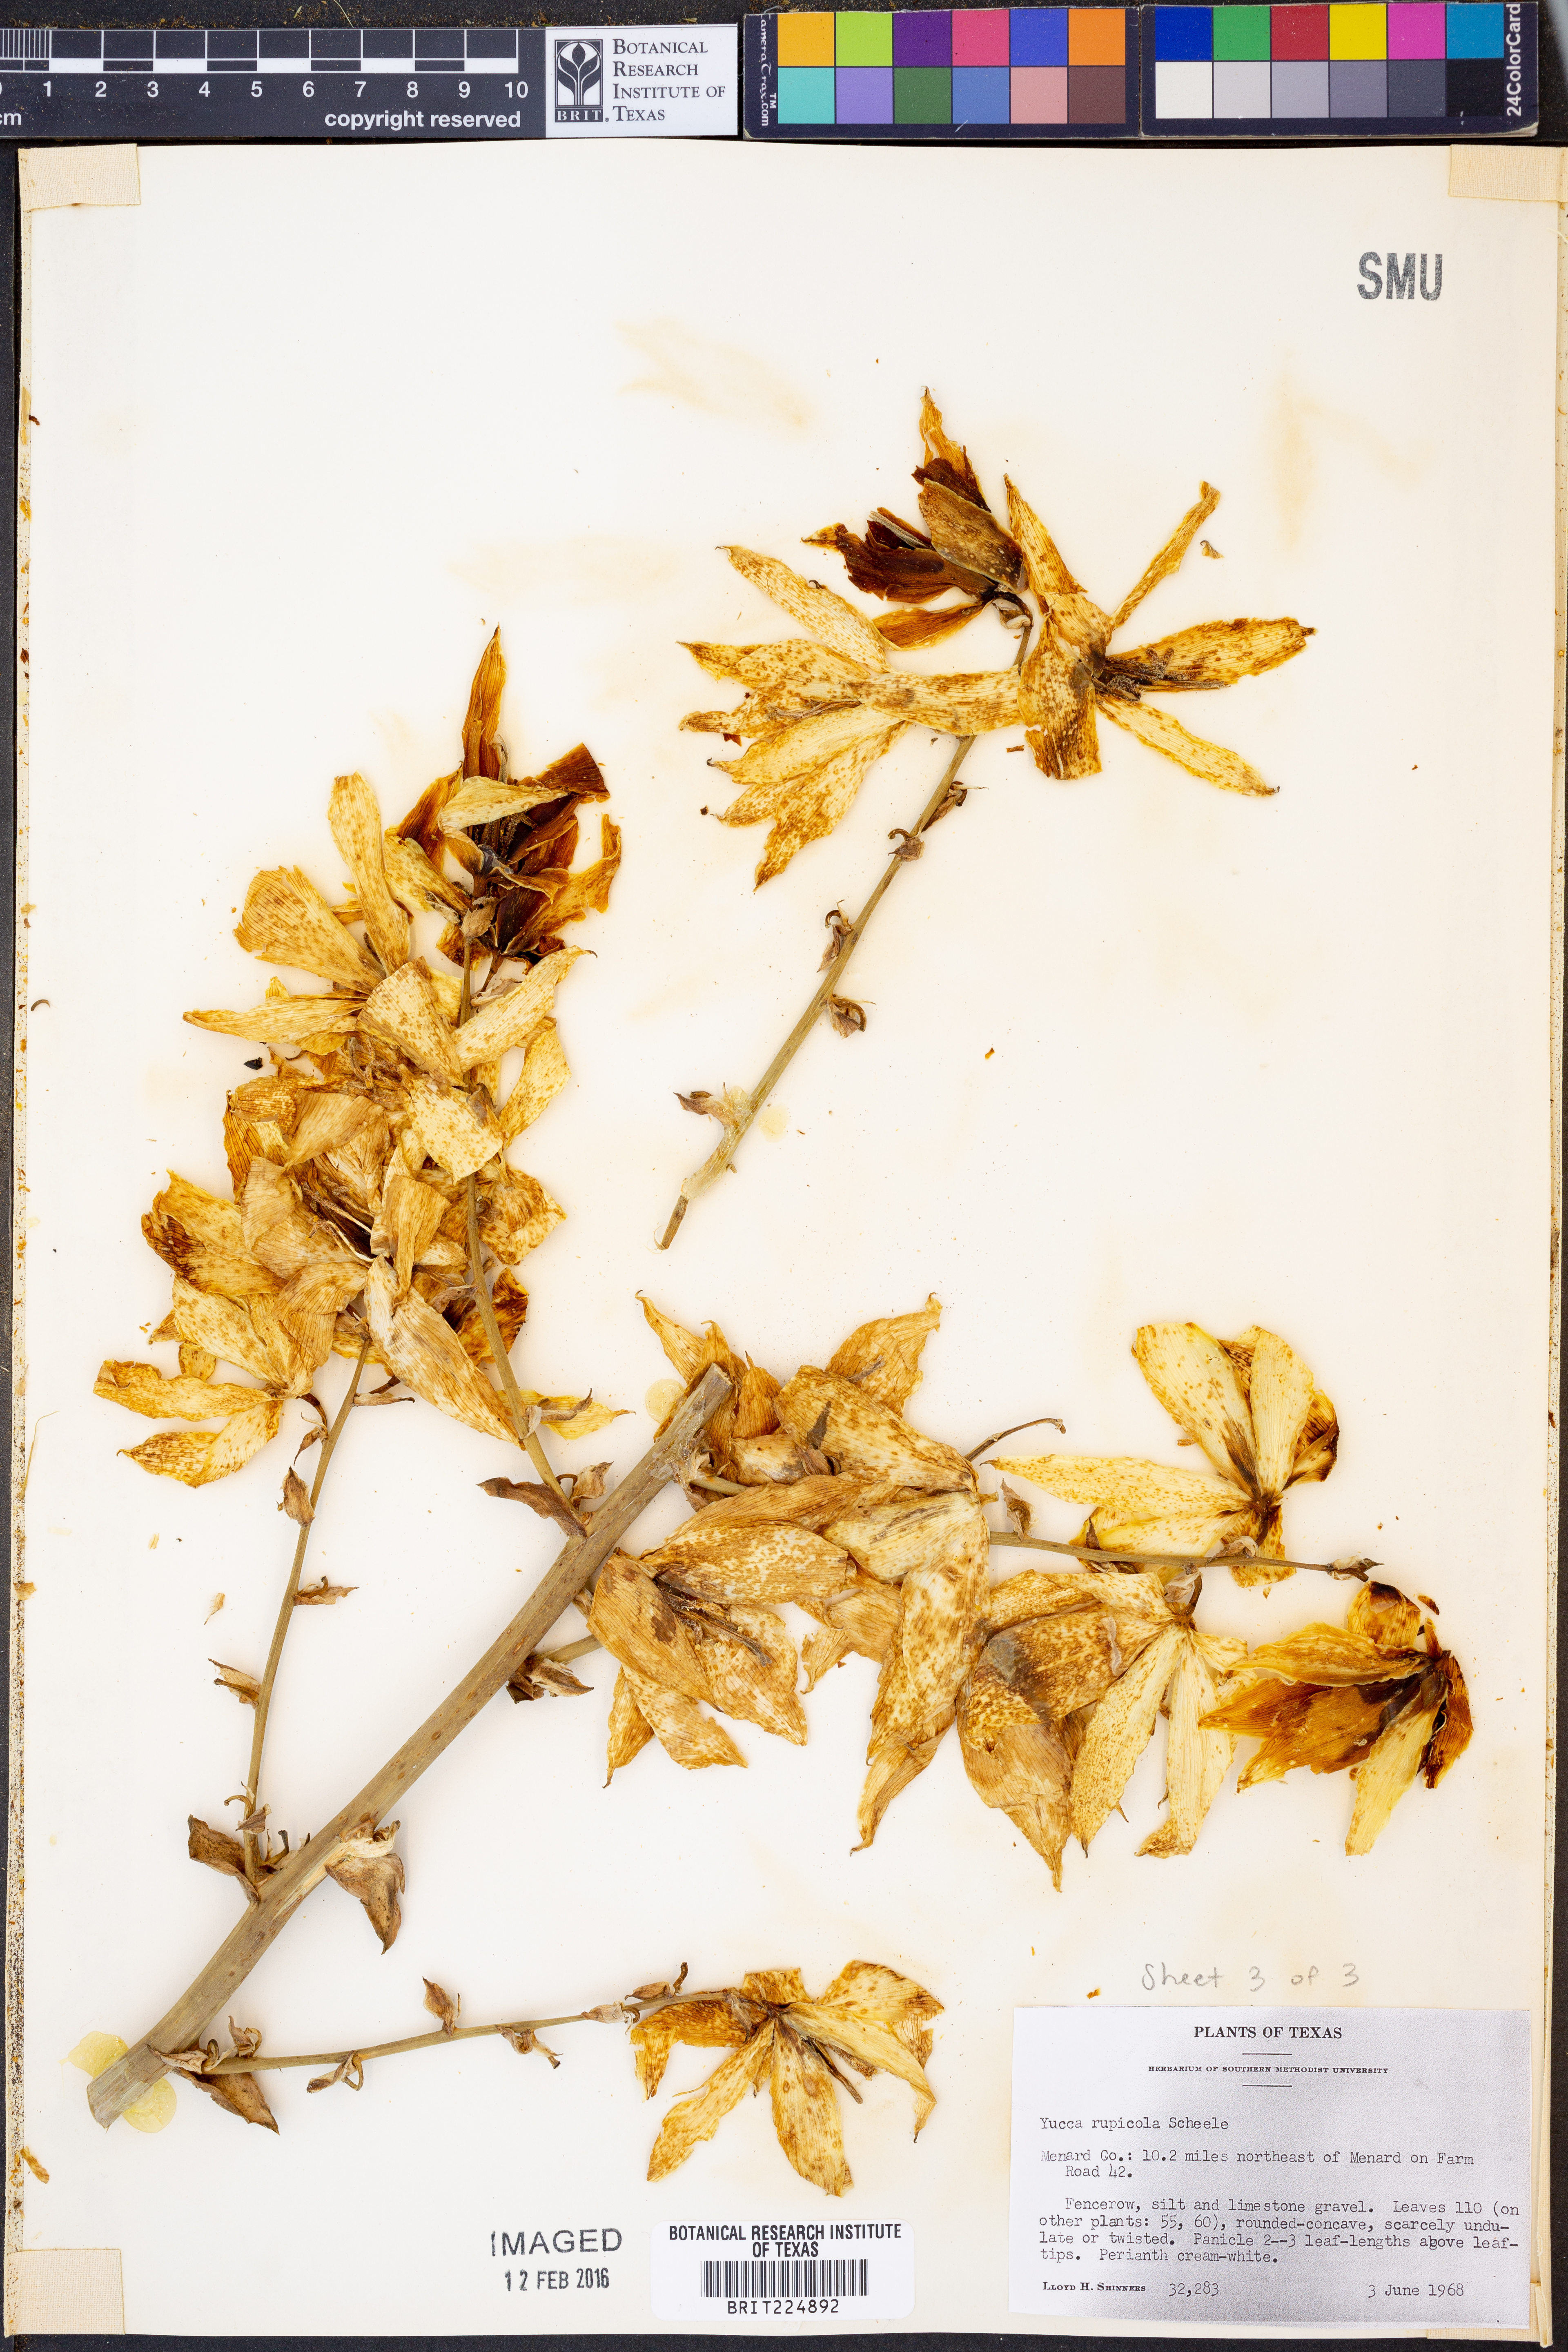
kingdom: Plantae
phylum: Tracheophyta
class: Liliopsida
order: Asparagales
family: Asparagaceae
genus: Yucca
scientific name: Yucca rupicola
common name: Twisted-leaf spanish-dagger
